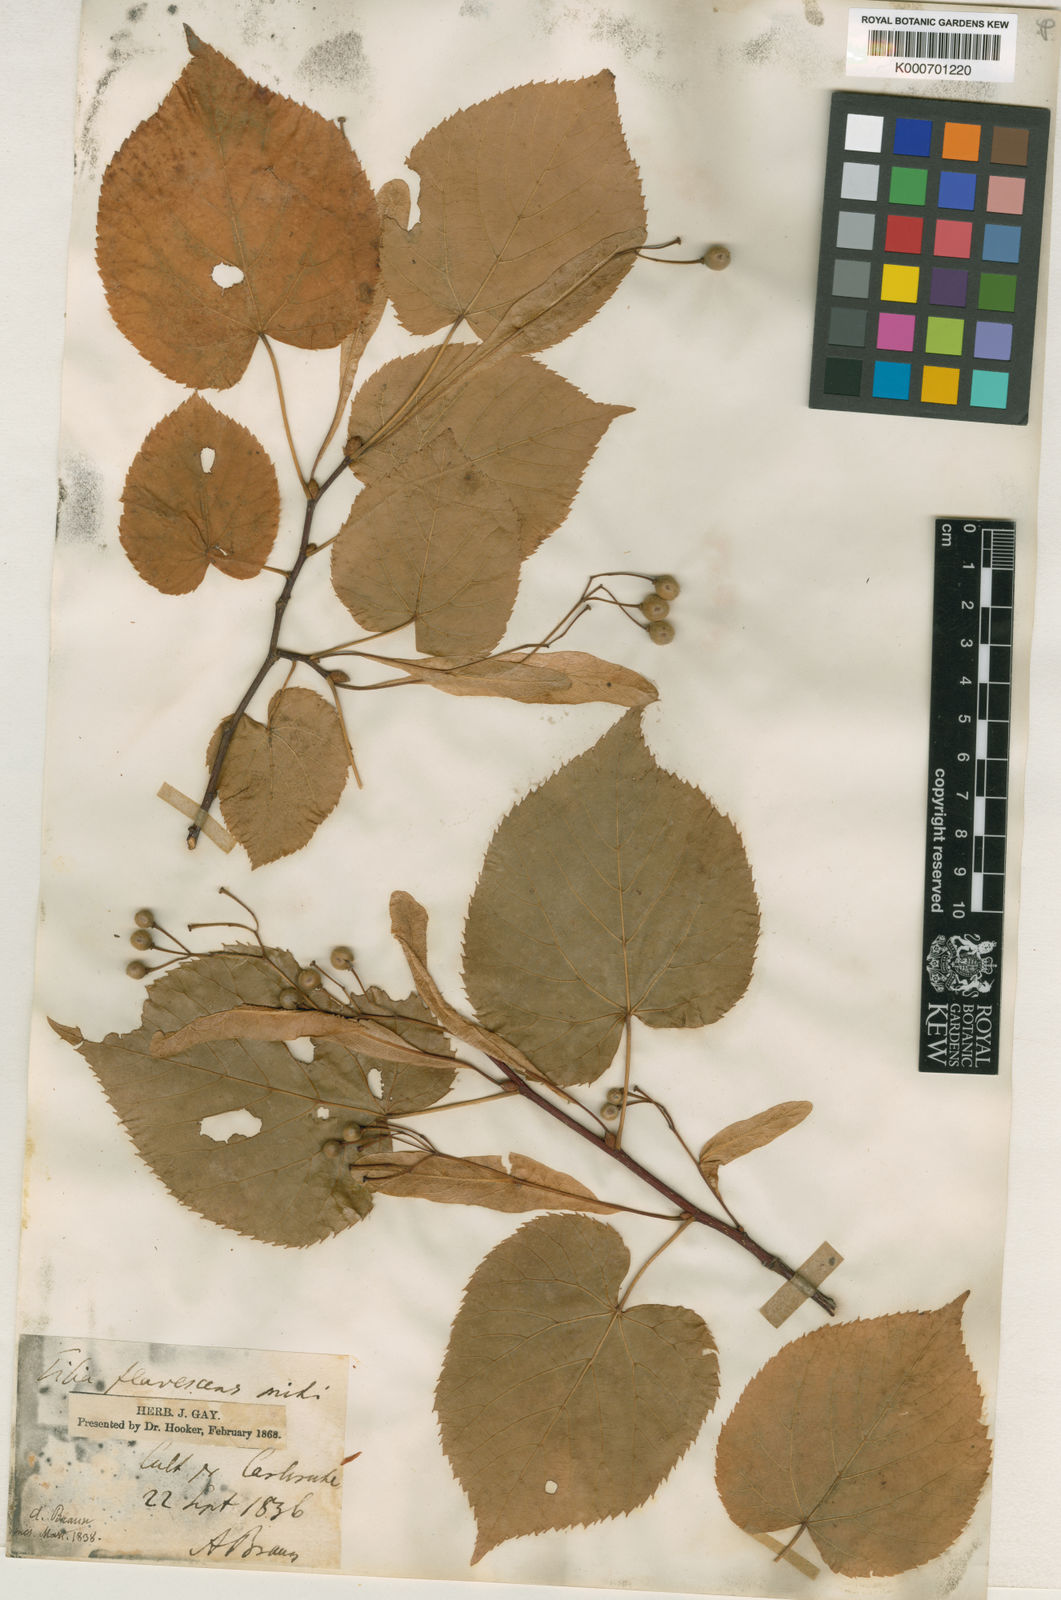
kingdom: Plantae
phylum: Tracheophyta
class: Magnoliopsida
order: Malvales
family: Malvaceae
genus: Tilia
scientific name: Tilia americana
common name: Basswood
